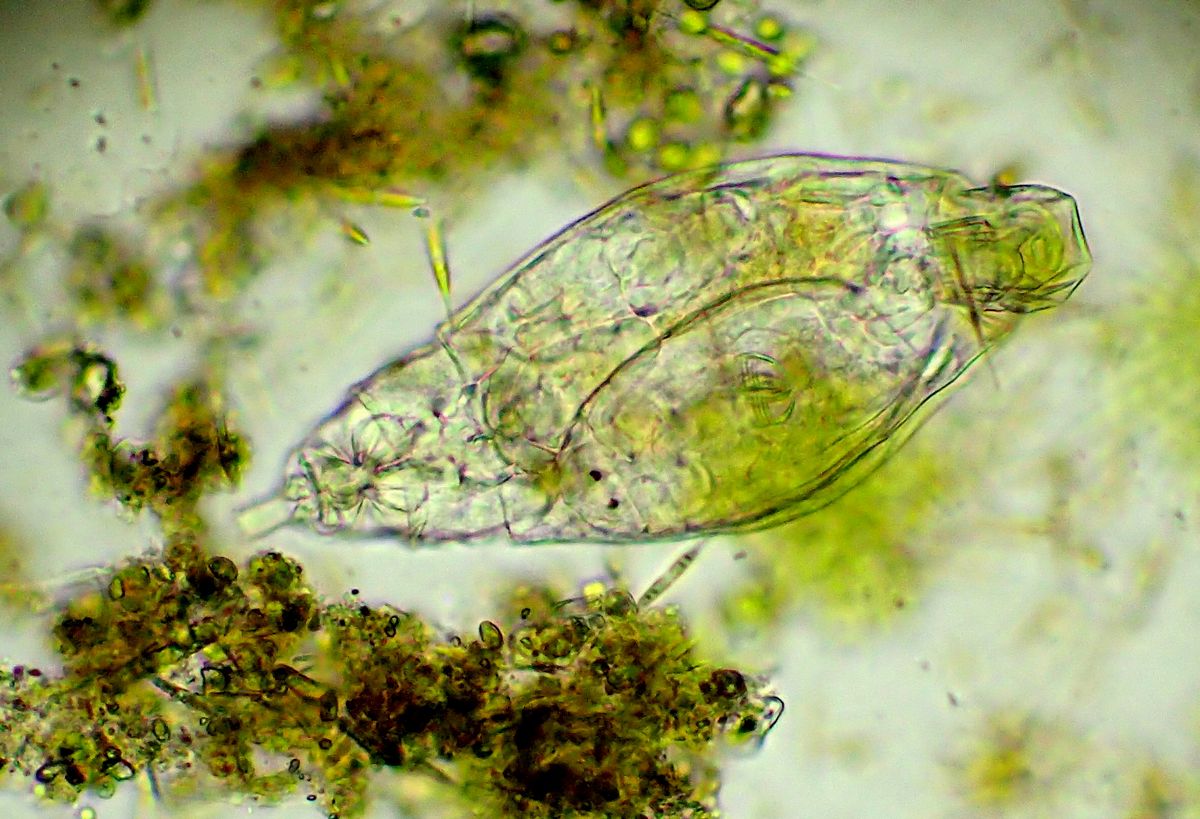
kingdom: Animalia
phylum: Rotifera
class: Eurotatoria
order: Bdelloidea
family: Philodinidae
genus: Rotaria
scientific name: Rotaria tardigrada
